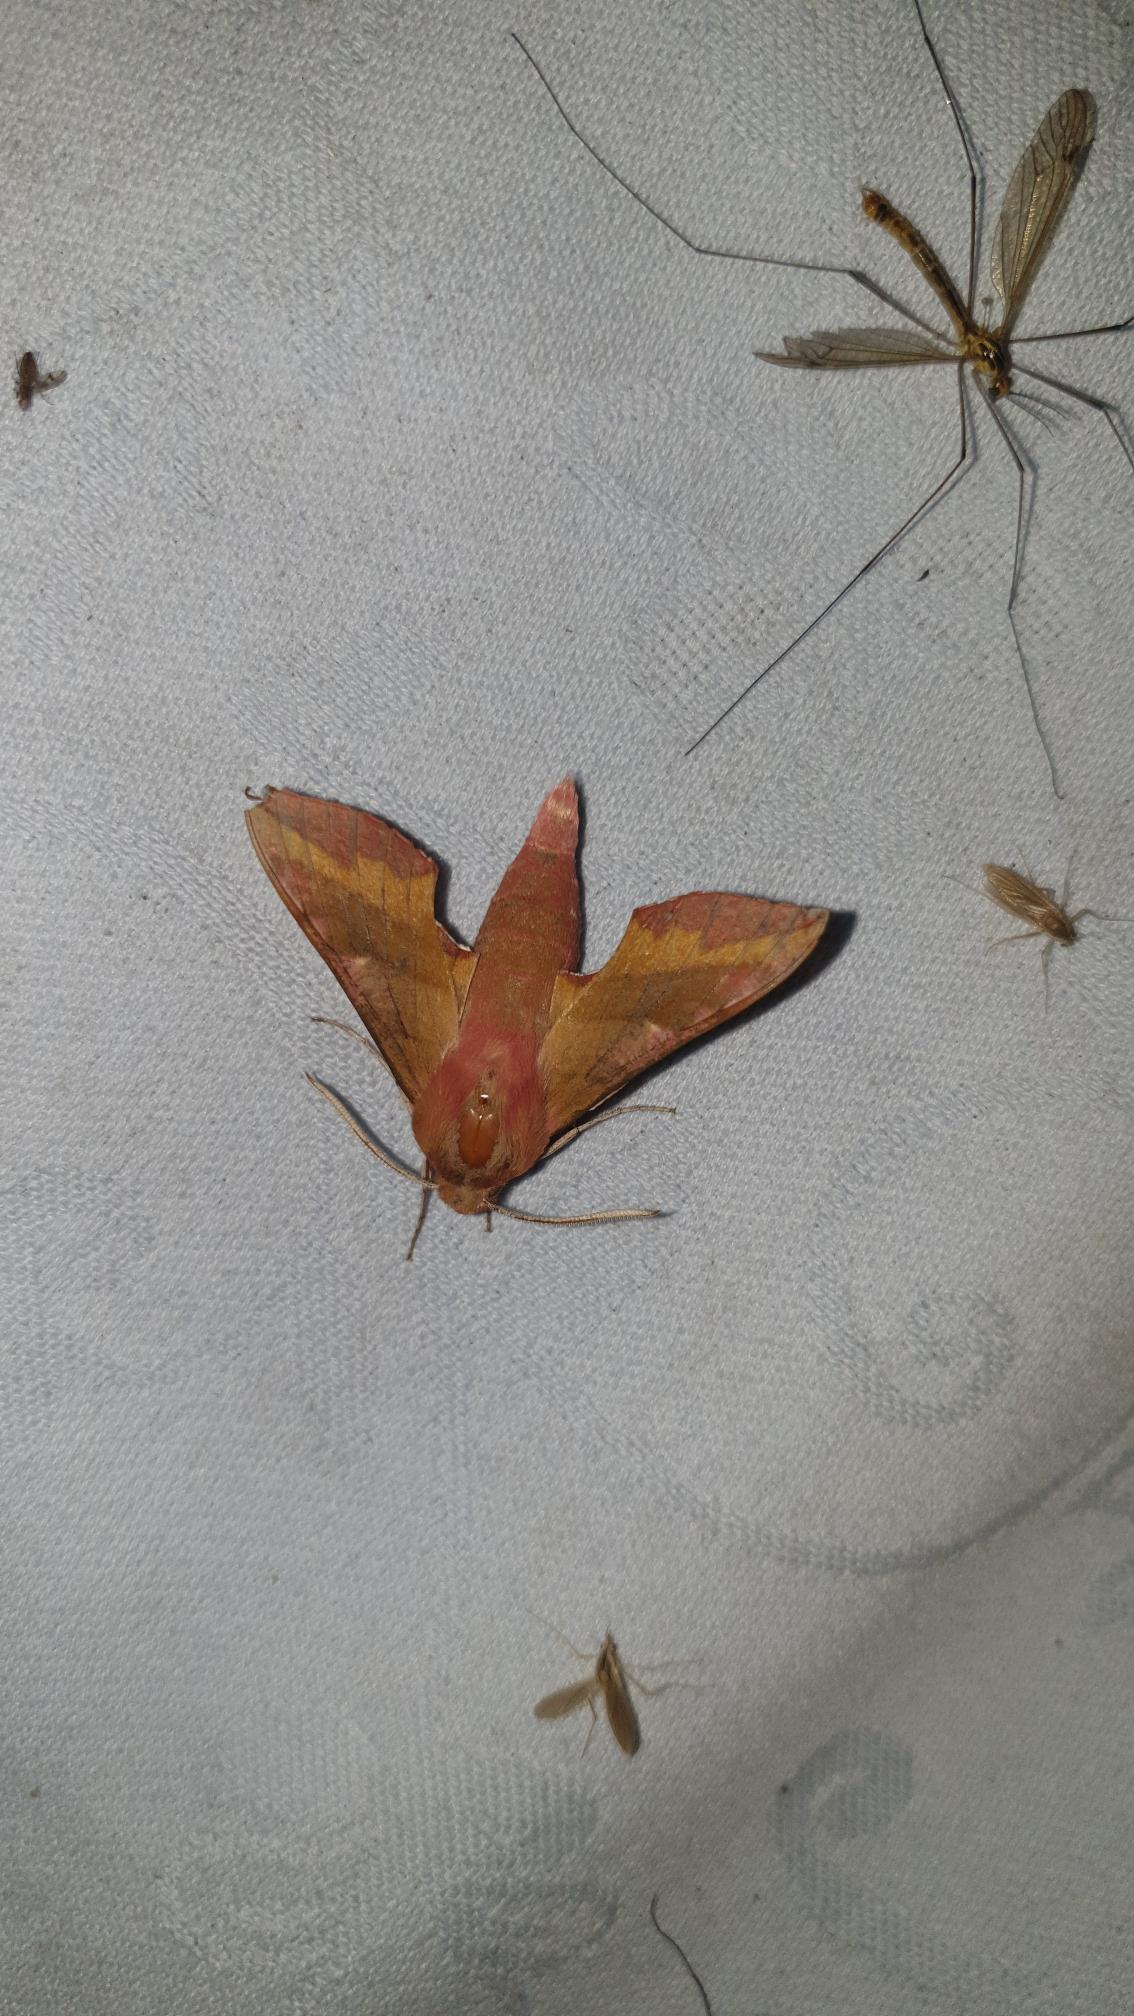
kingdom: Animalia
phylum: Arthropoda
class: Insecta
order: Lepidoptera
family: Sphingidae
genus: Deilephila
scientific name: Deilephila porcellus
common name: Lille vinsværmer
